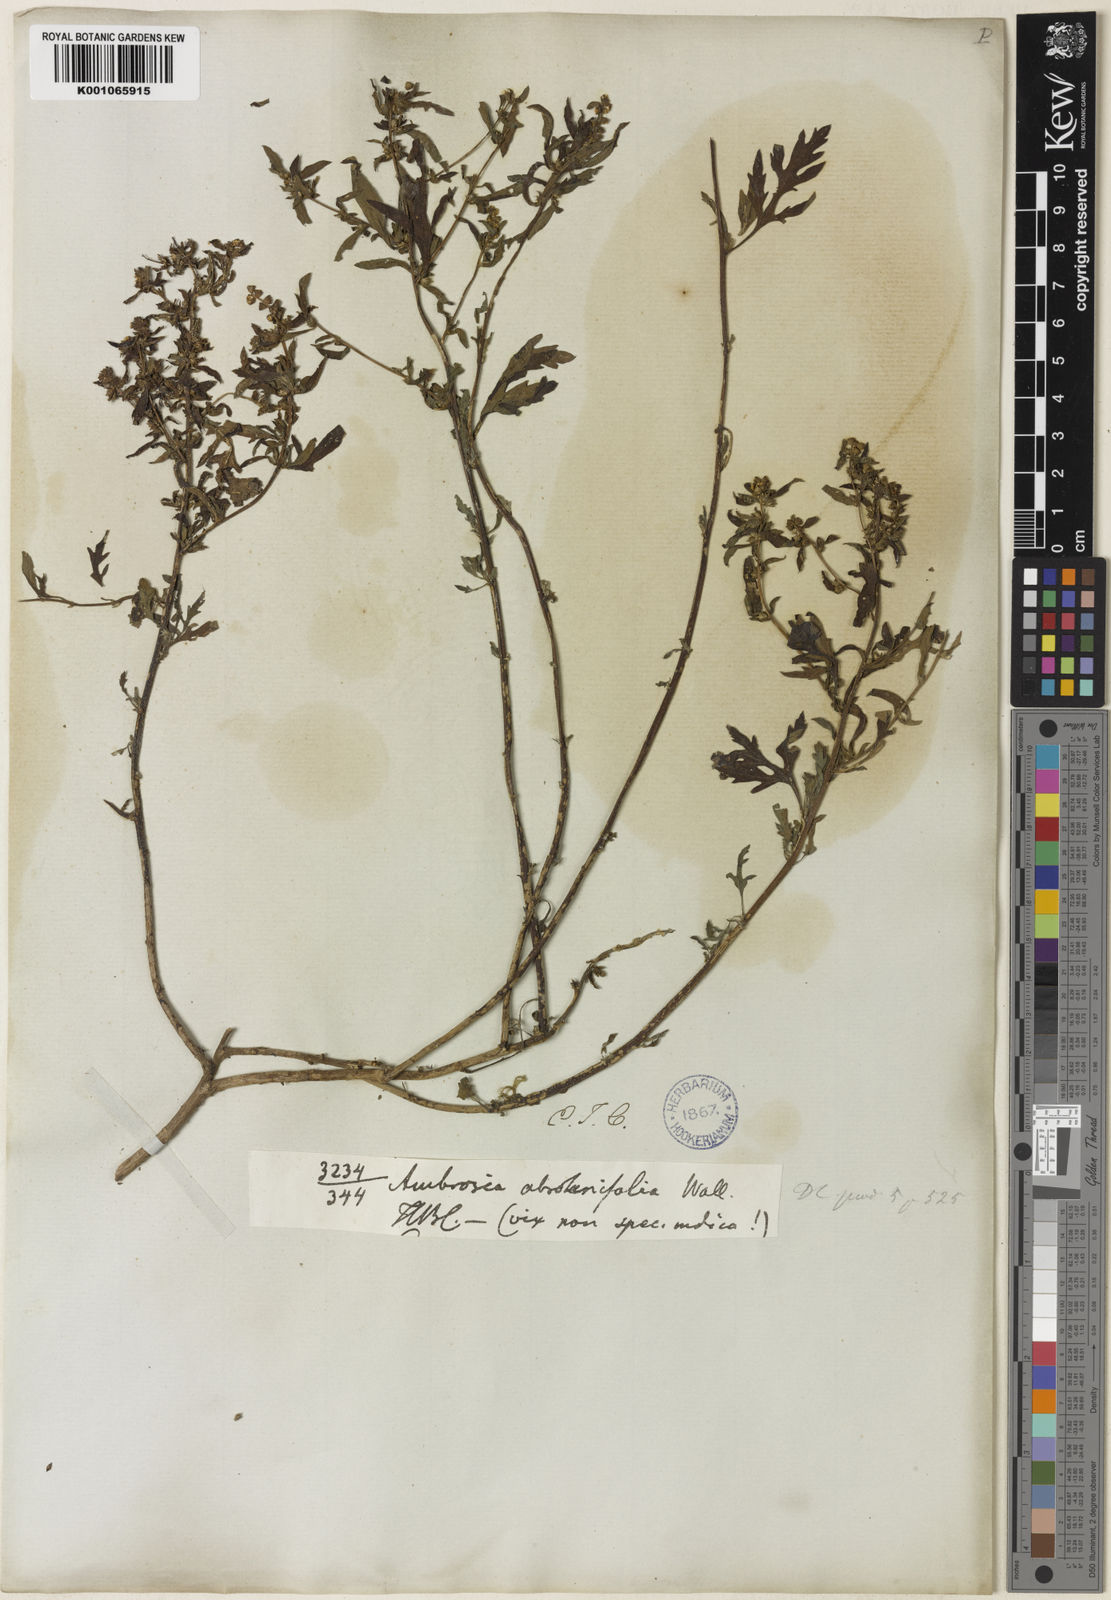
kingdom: Plantae
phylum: Tracheophyta
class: Magnoliopsida
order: Asterales
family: Asteraceae
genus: Ambrosia
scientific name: Ambrosia polystachya
